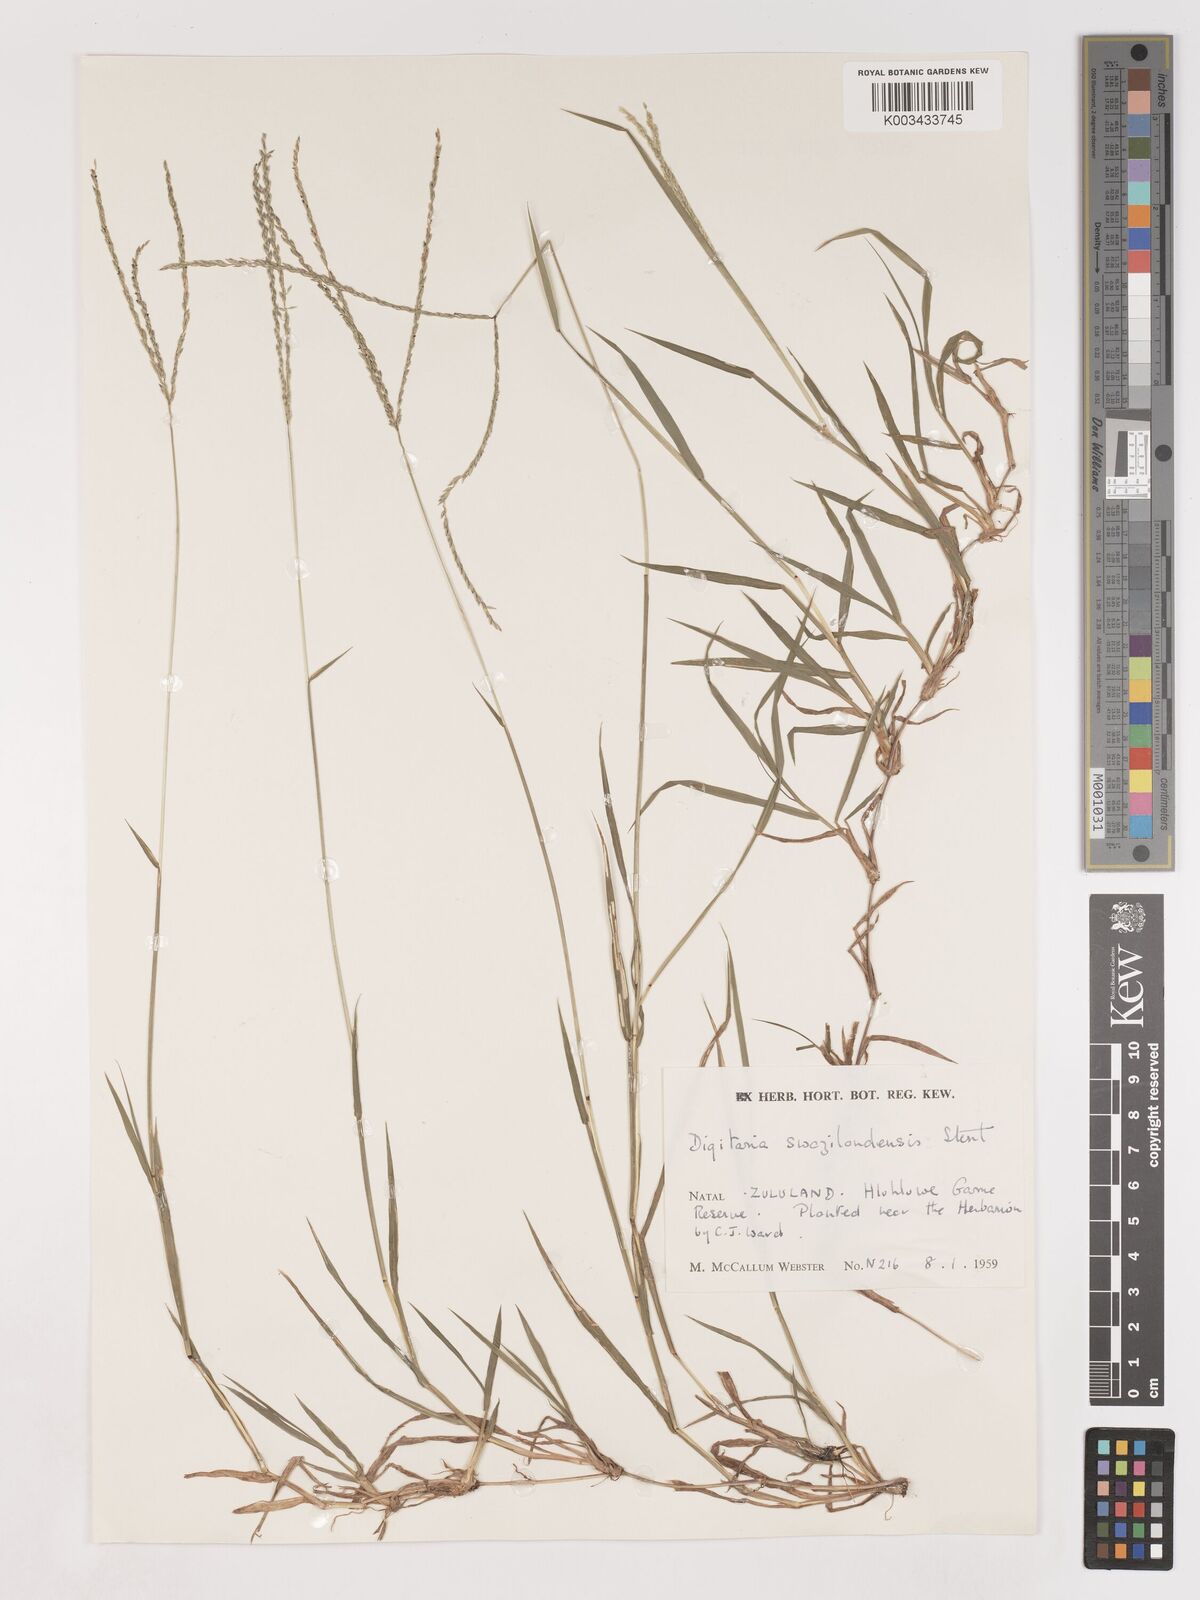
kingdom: Plantae
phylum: Tracheophyta
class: Liliopsida
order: Poales
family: Poaceae
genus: Digitaria
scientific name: Digitaria didactyla
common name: Blue couch
